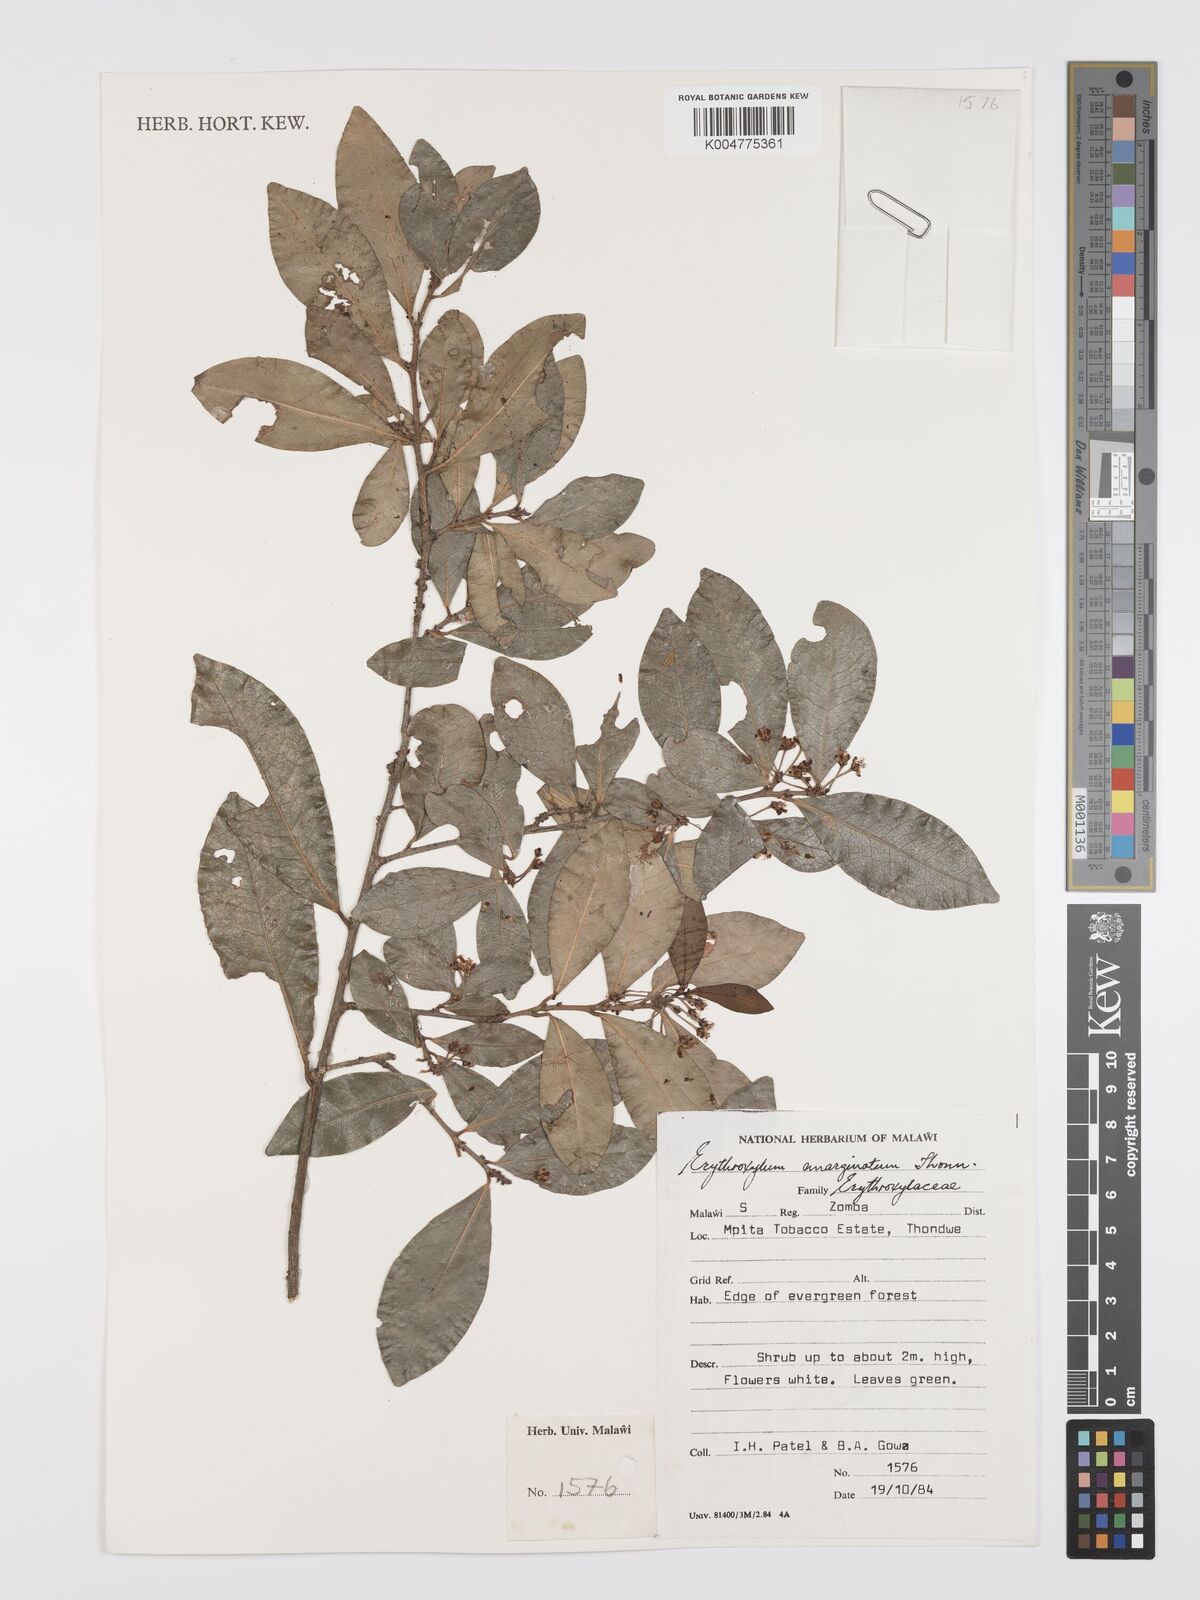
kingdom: Plantae
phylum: Tracheophyta
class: Magnoliopsida
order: Malpighiales
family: Erythroxylaceae
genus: Erythroxylum
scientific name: Erythroxylum emarginatum
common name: African coca-tree
